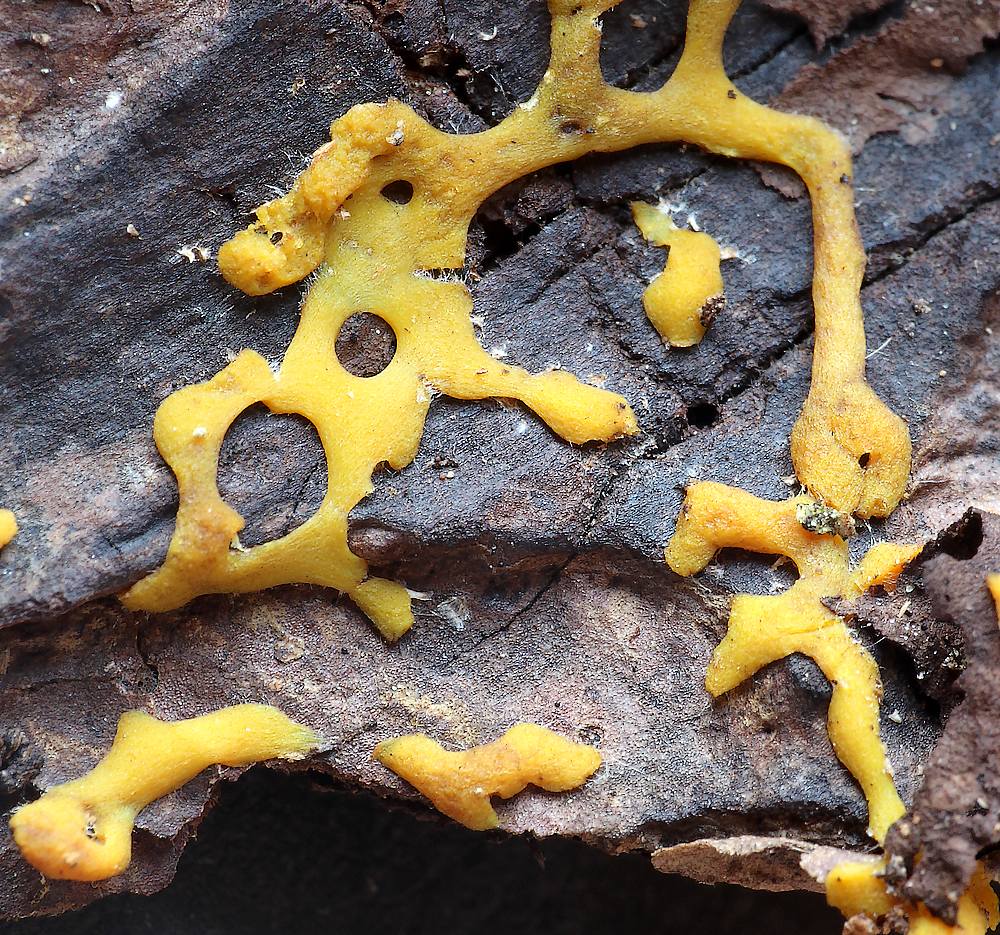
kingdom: Protozoa
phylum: Mycetozoa
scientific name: Mycetozoa
